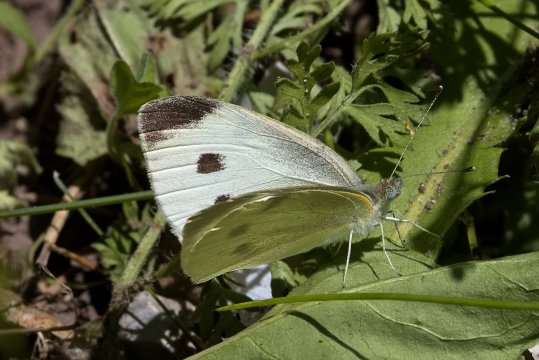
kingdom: Animalia
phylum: Arthropoda
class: Insecta
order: Lepidoptera
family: Pieridae
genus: Pieris
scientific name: Pieris rapae
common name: Cabbage White
